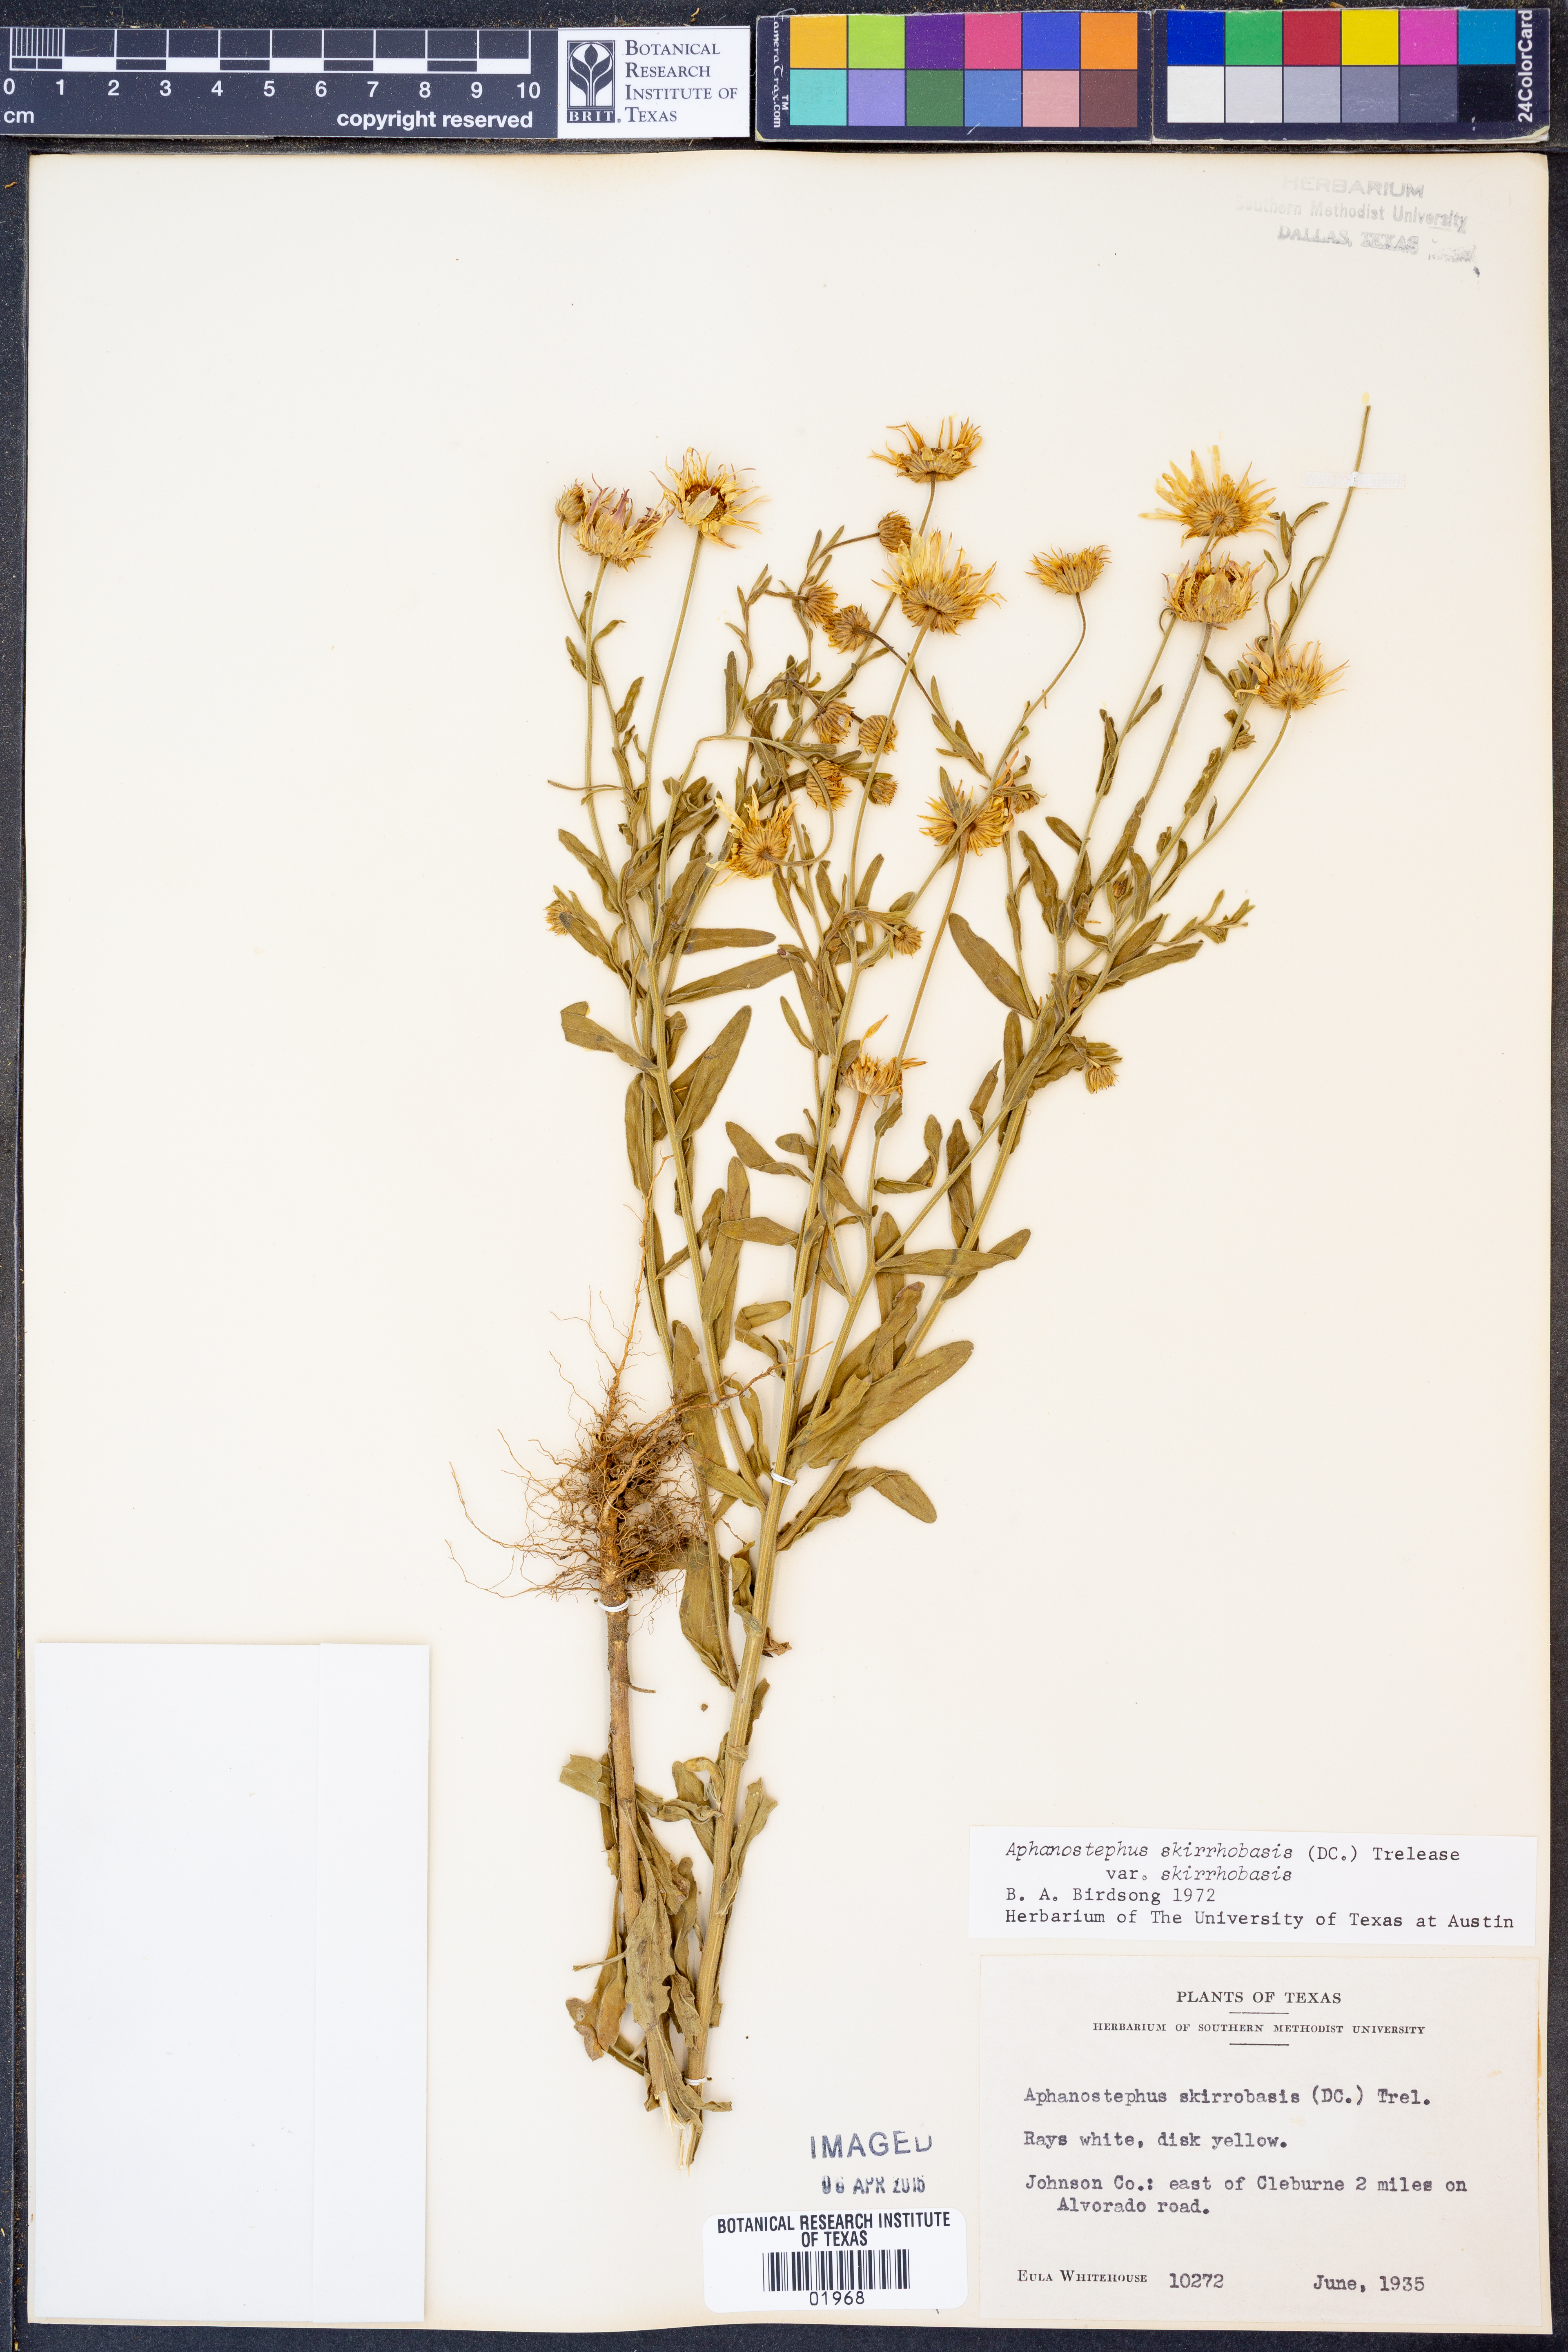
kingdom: Plantae
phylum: Tracheophyta
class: Magnoliopsida
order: Asterales
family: Asteraceae
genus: Aphanostephus
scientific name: Aphanostephus skirrhobasis
